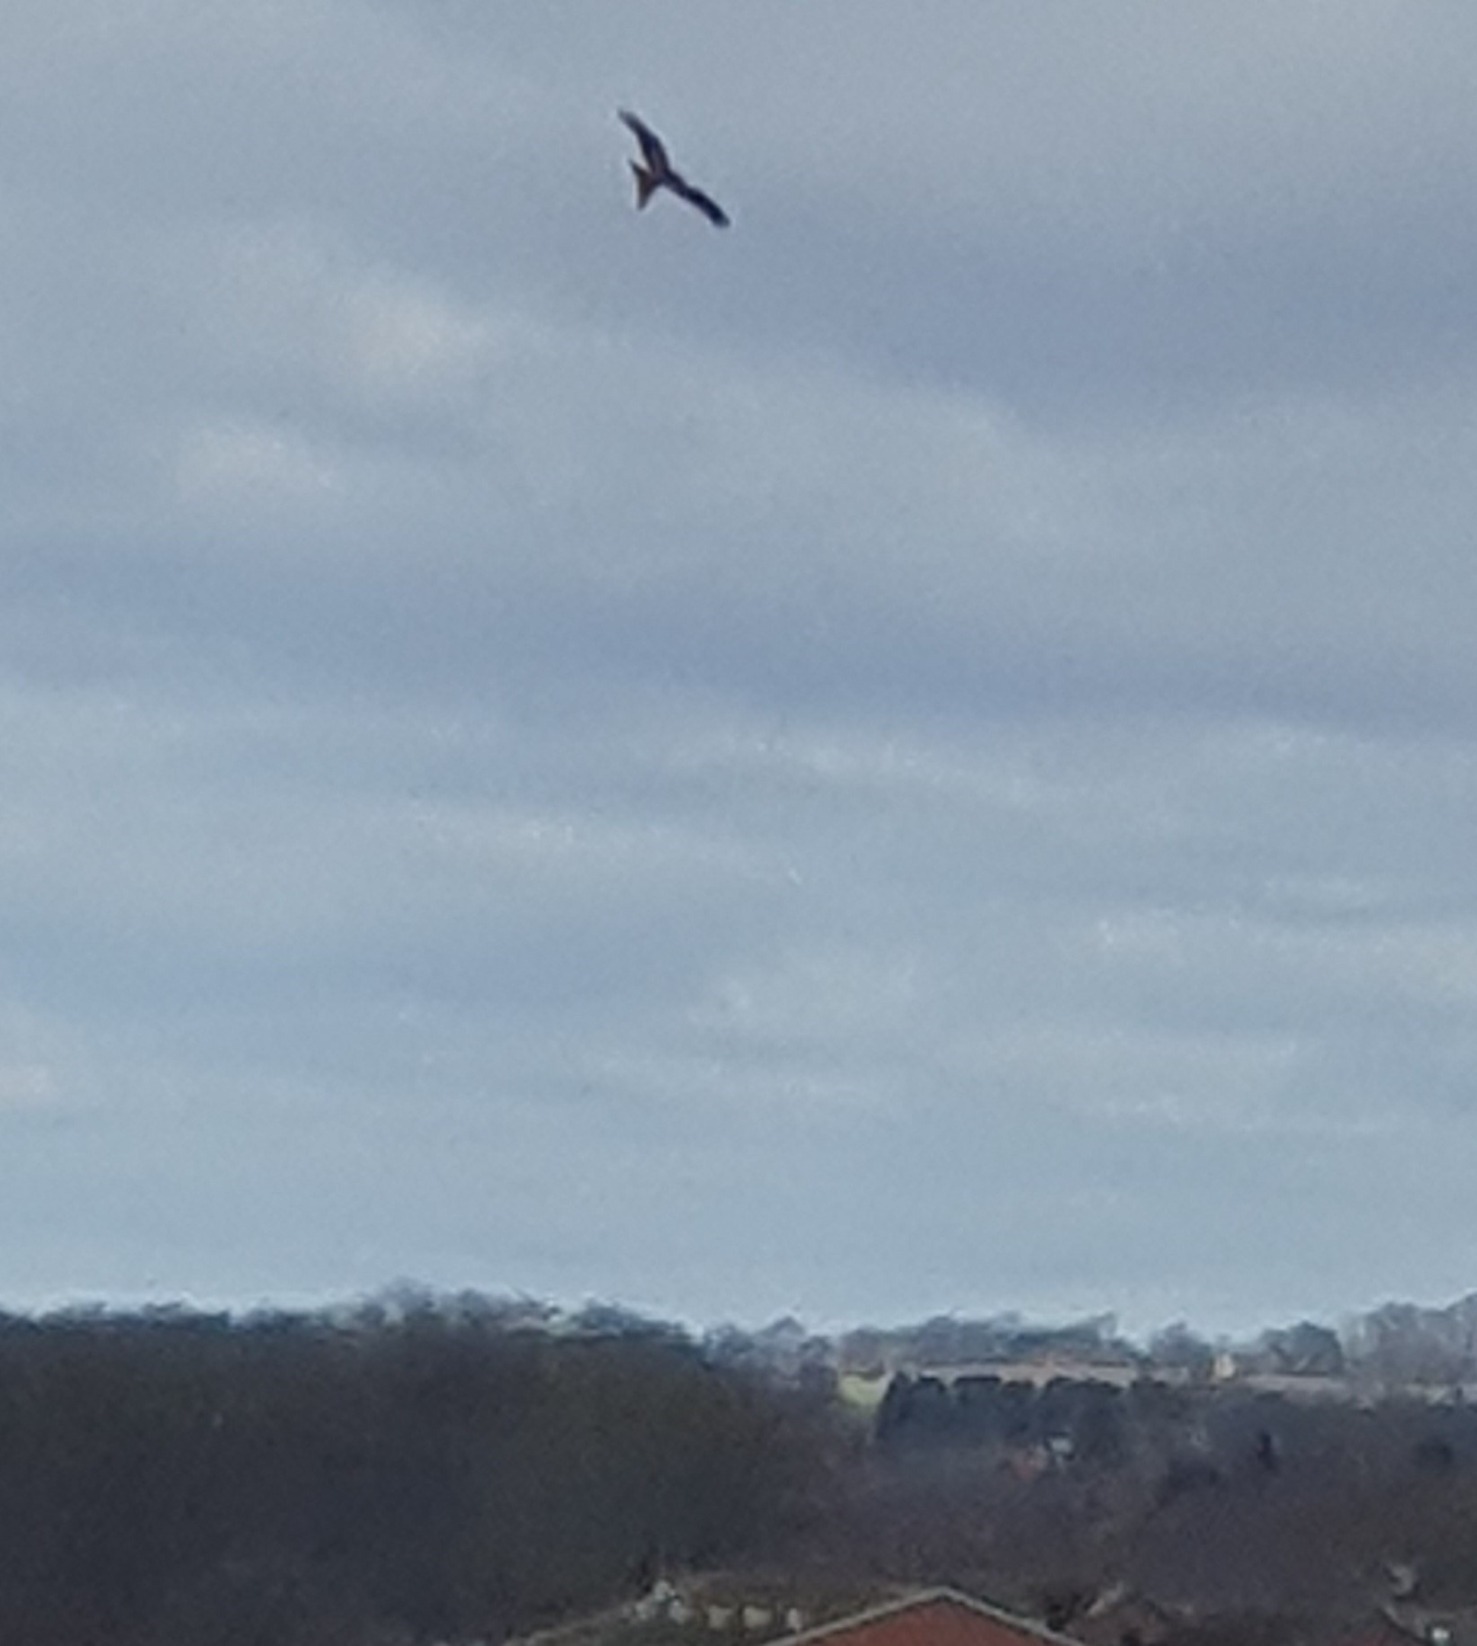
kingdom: Animalia
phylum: Chordata
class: Aves
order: Accipitriformes
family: Accipitridae
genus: Milvus
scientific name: Milvus milvus
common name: Rød glente
